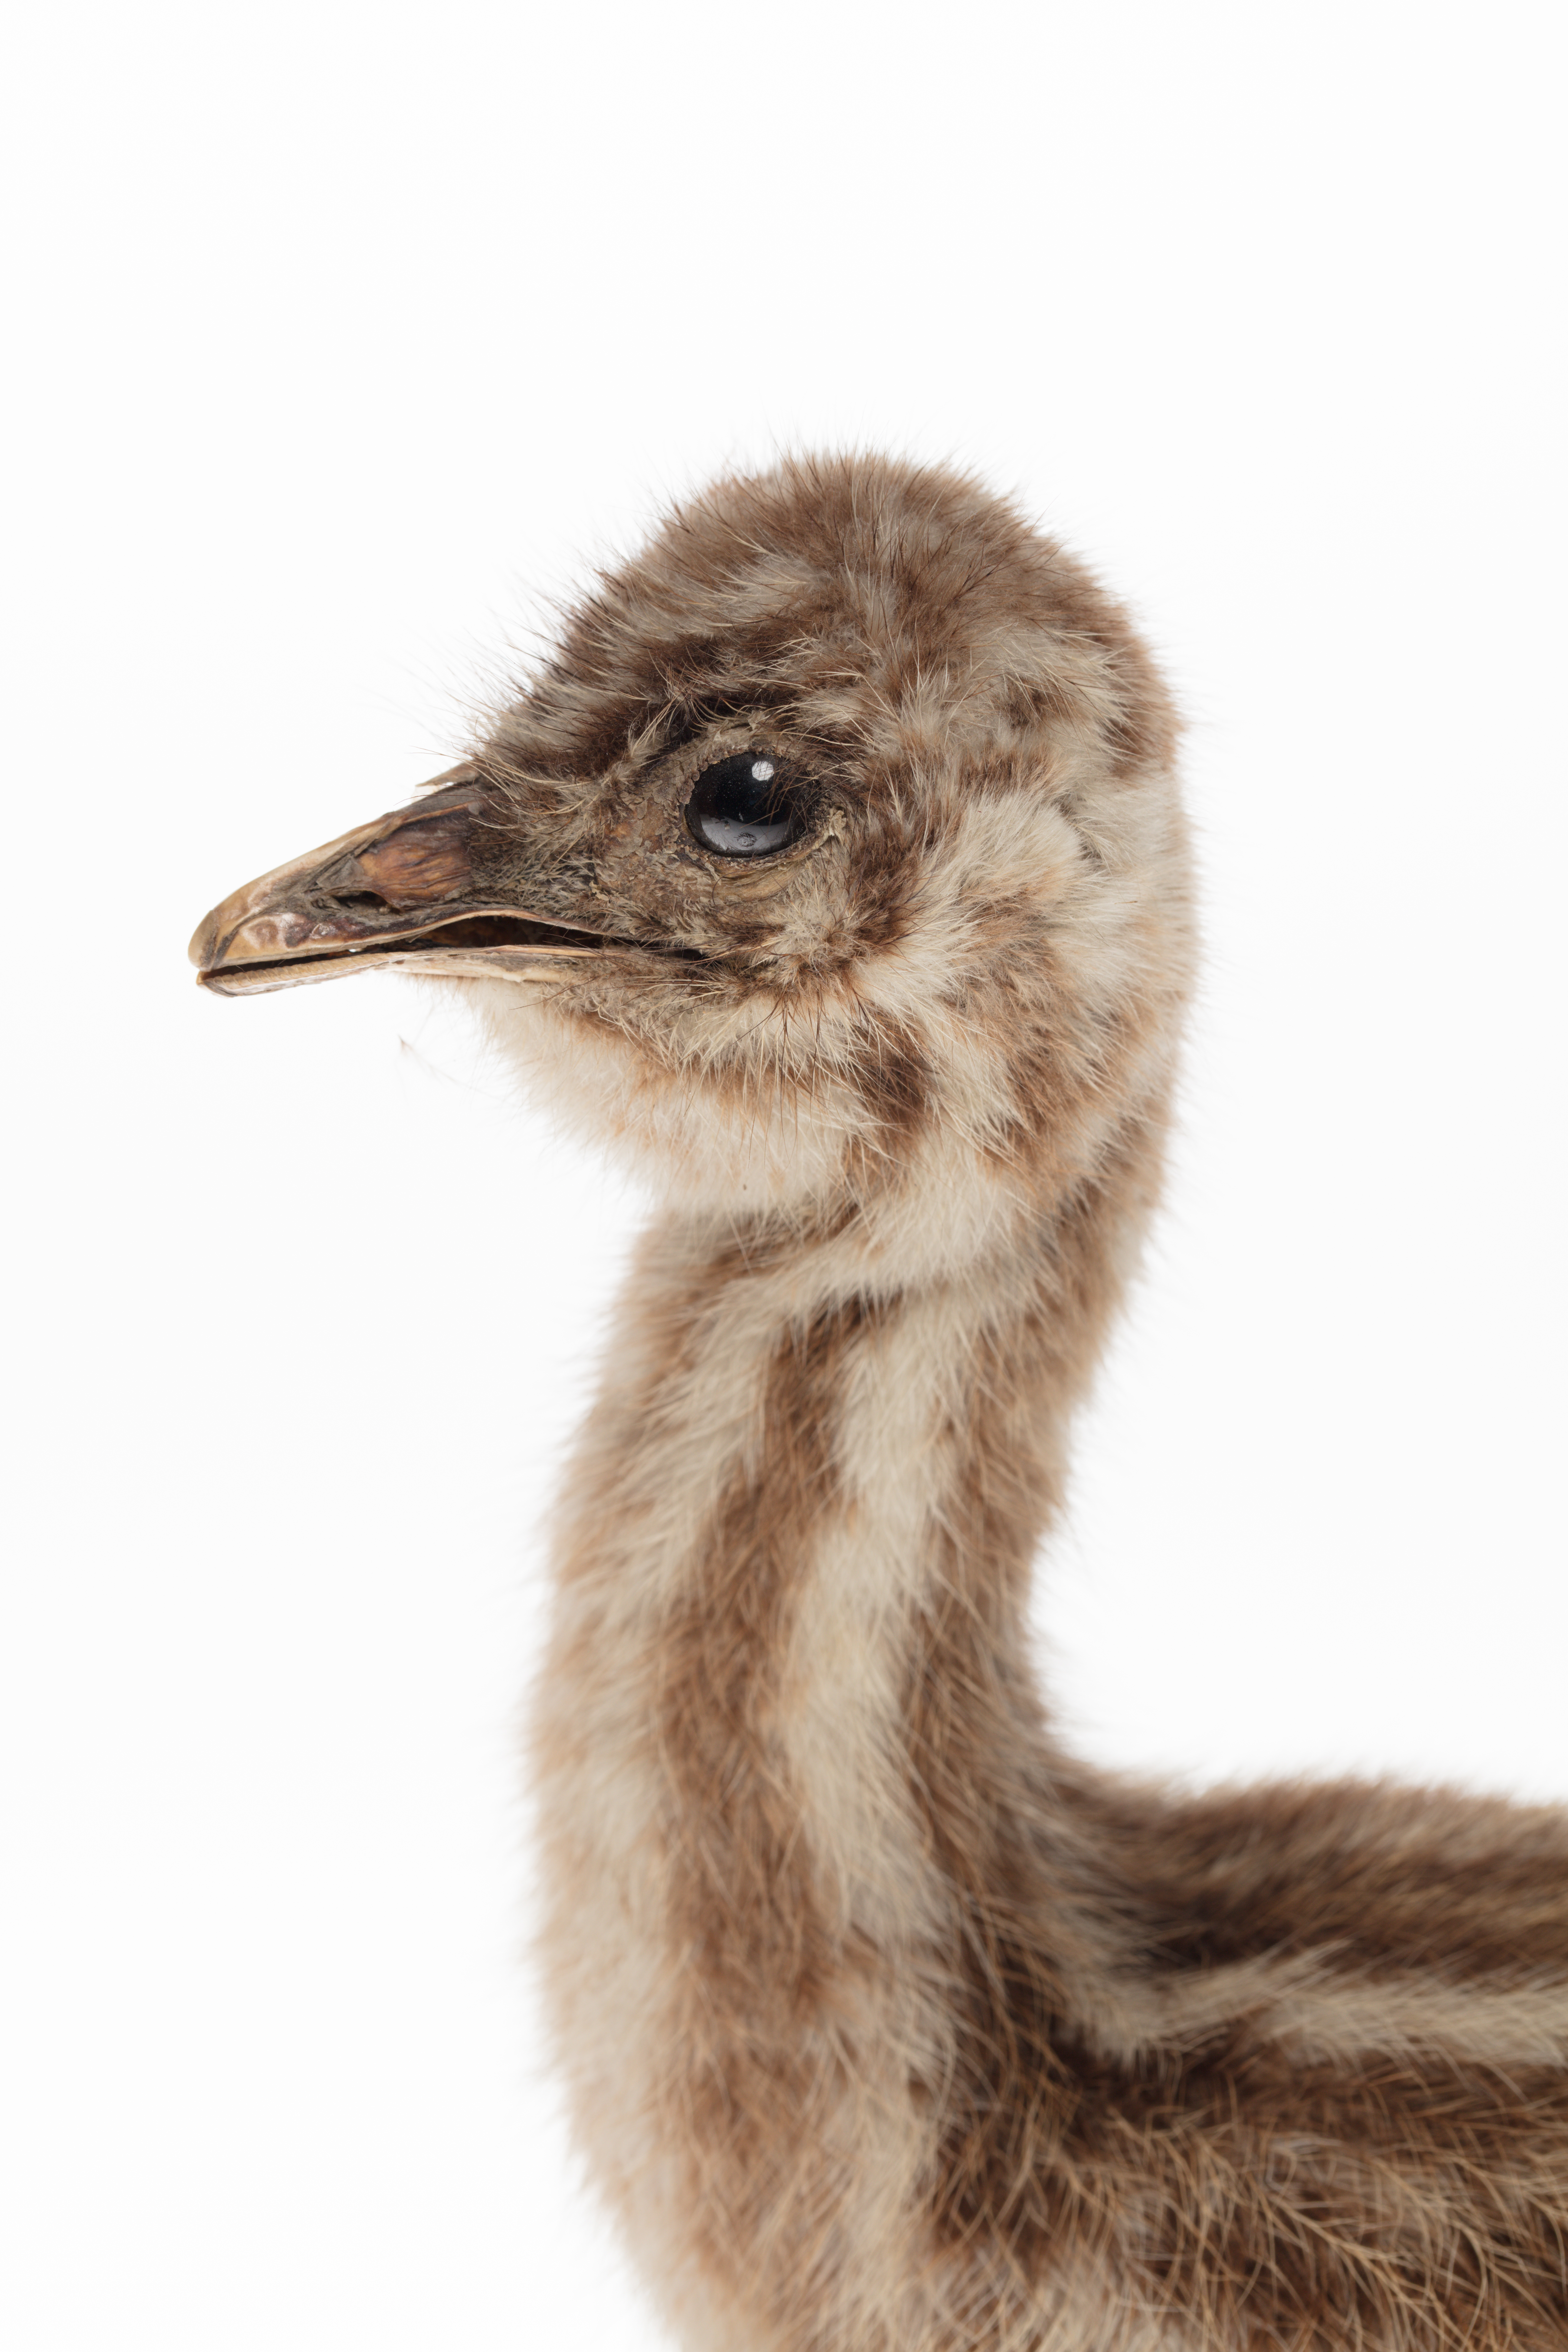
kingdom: Animalia
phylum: Chordata
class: Aves
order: Casuariiformes
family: Dromaiidae
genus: Dromaius
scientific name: Dromaius novaehollandiae
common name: Emu
